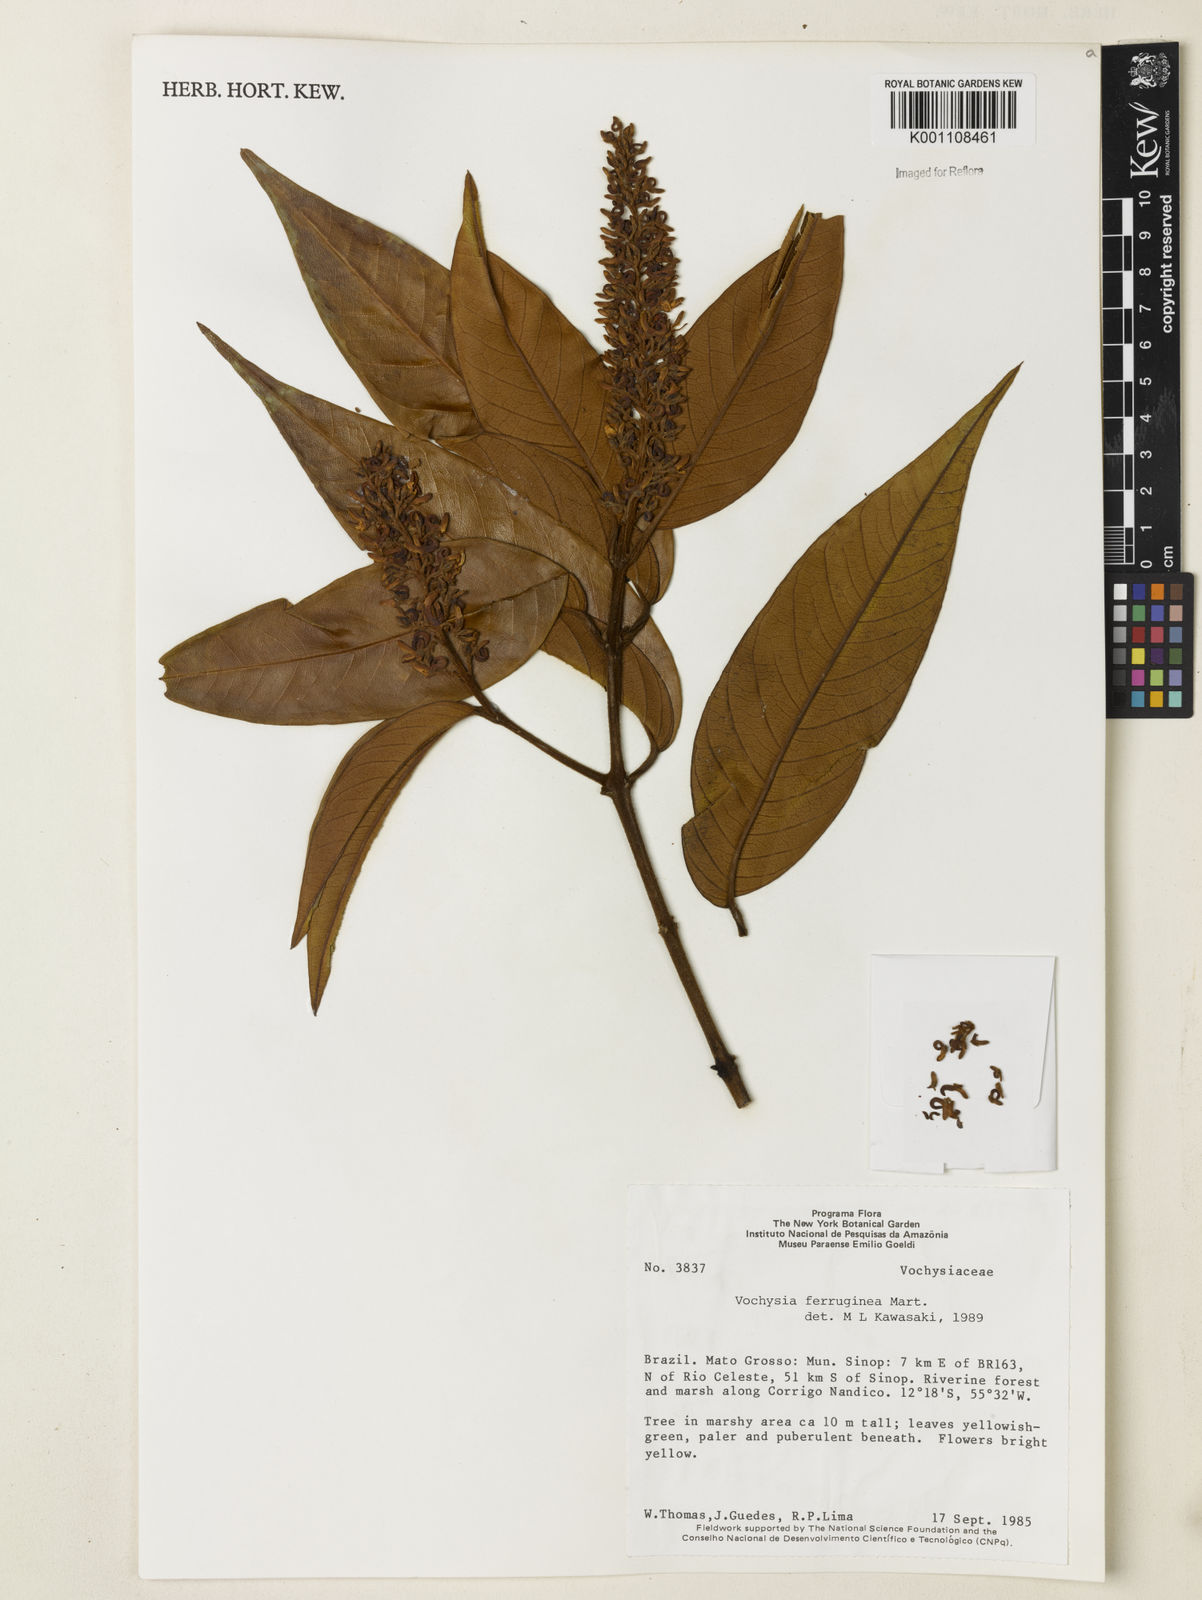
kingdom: Plantae
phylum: Tracheophyta
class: Magnoliopsida
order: Myrtales
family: Vochysiaceae
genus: Vochysia
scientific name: Vochysia ferruginea
